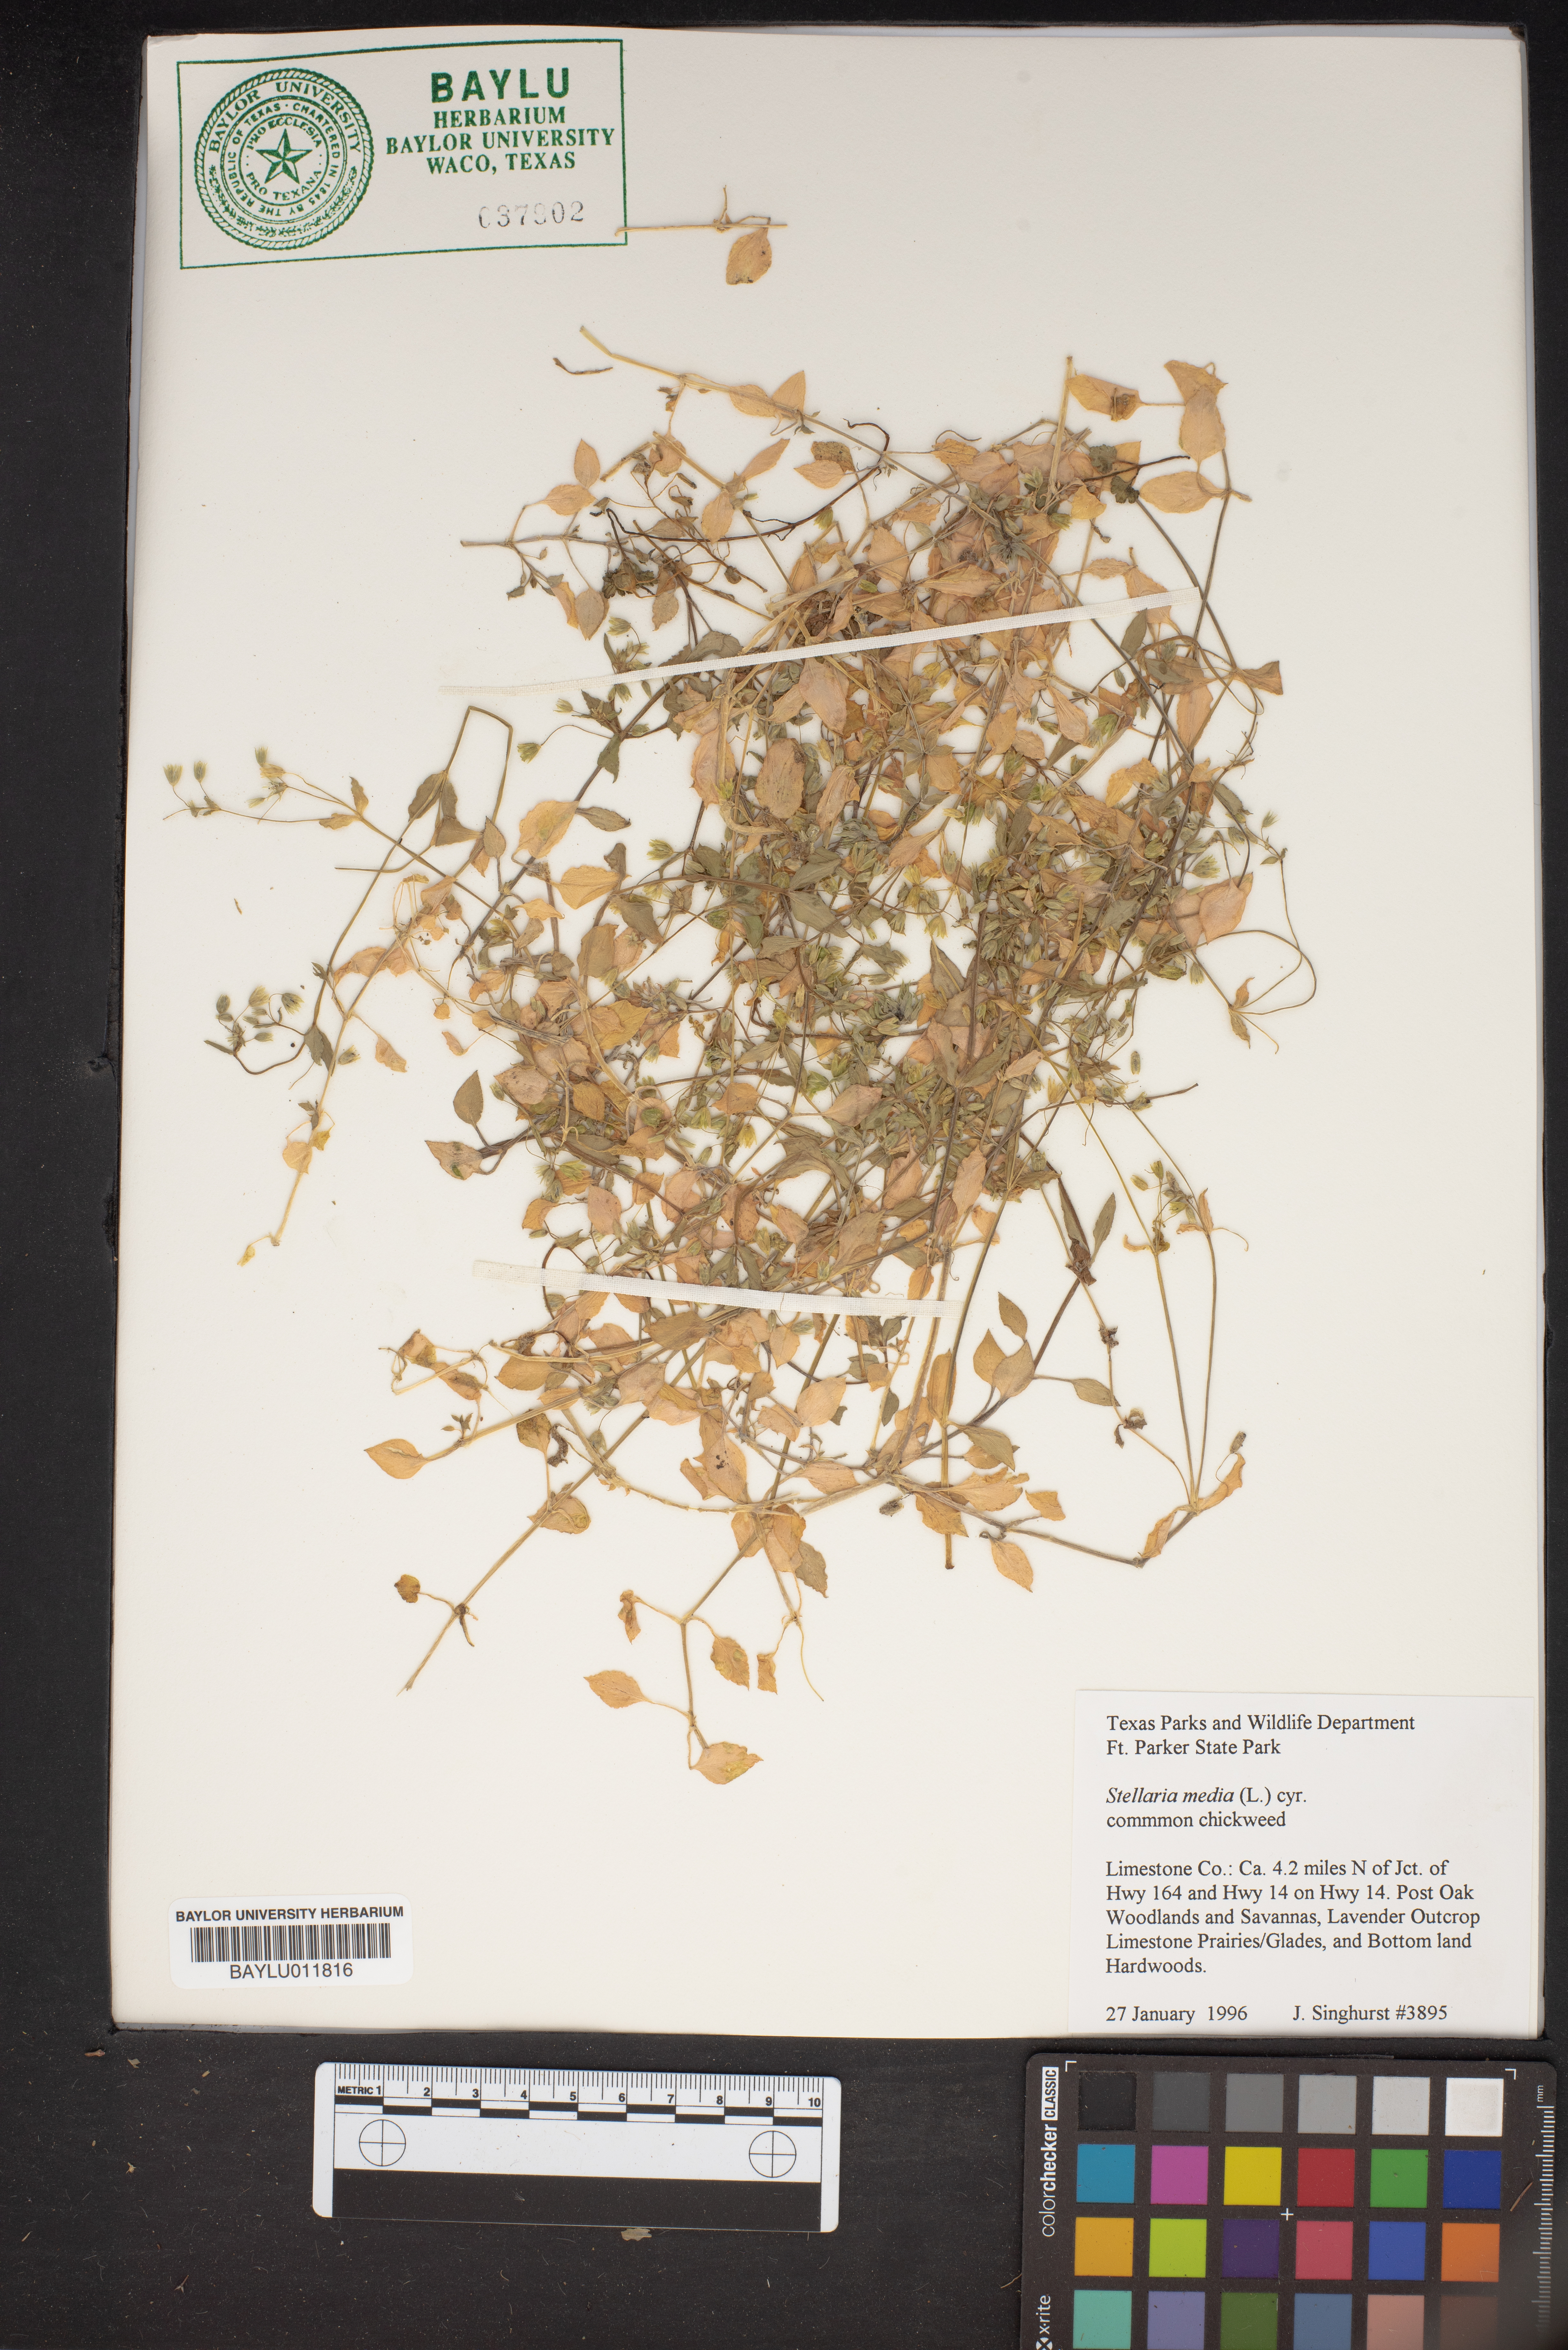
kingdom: Plantae
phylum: Tracheophyta
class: Magnoliopsida
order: Caryophyllales
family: Caryophyllaceae
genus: Stellaria
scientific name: Stellaria media
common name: Common chickweed
